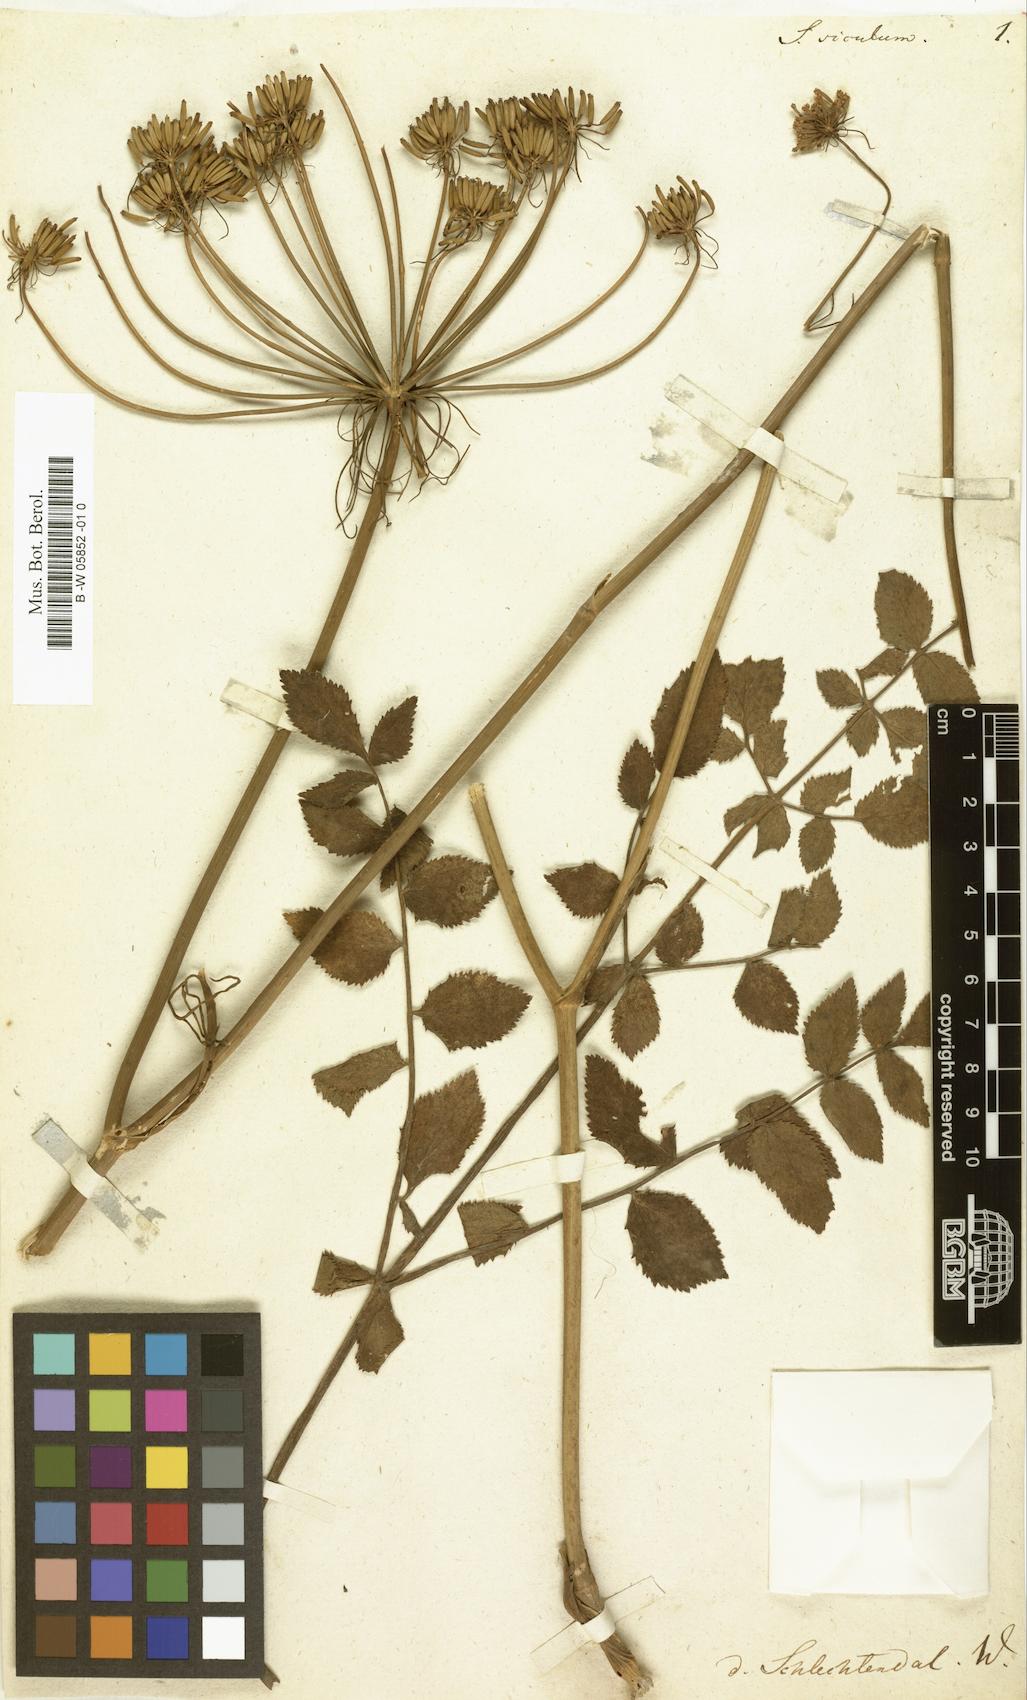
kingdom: Plantae
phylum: Tracheophyta
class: Magnoliopsida
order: Apiales
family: Apiaceae
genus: Kundmannia
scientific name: Kundmannia sicula
